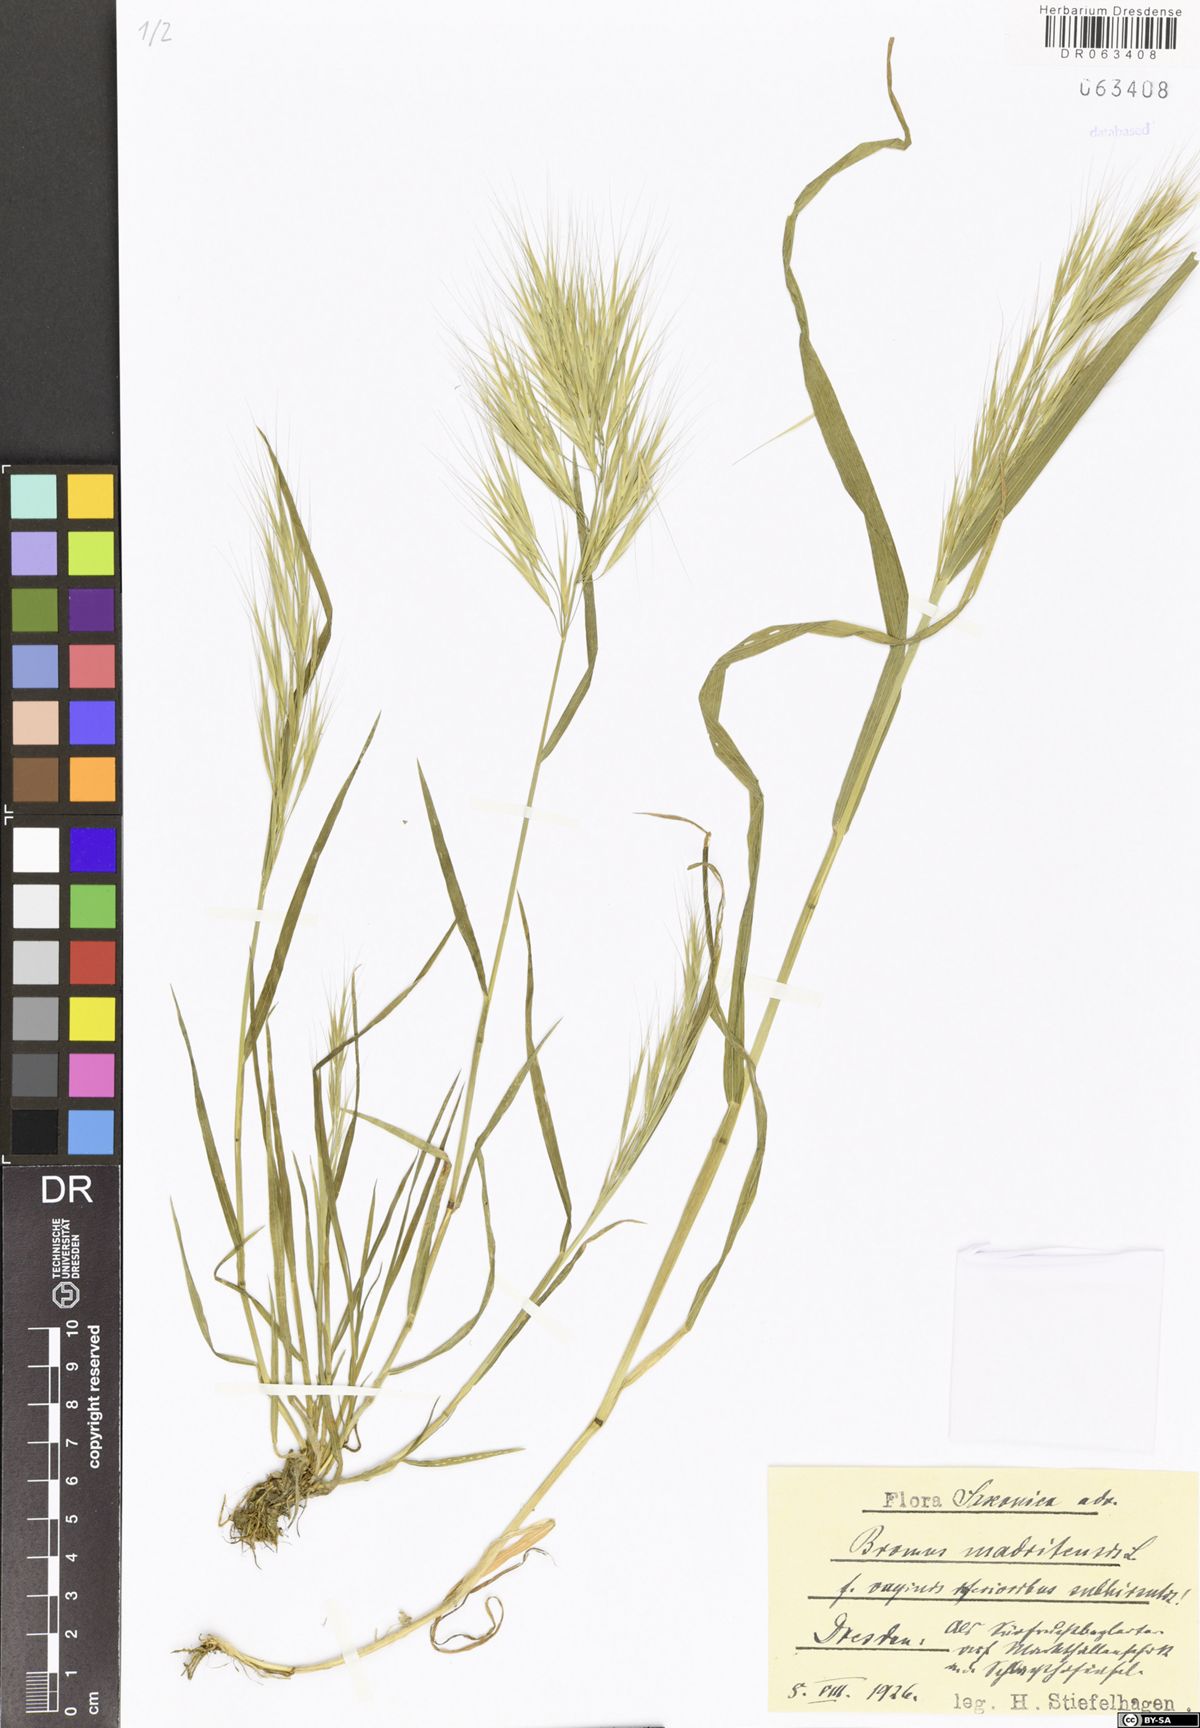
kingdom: Plantae
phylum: Tracheophyta
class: Liliopsida
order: Poales
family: Poaceae
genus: Bromus
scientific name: Bromus madritensis
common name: Compact brome
